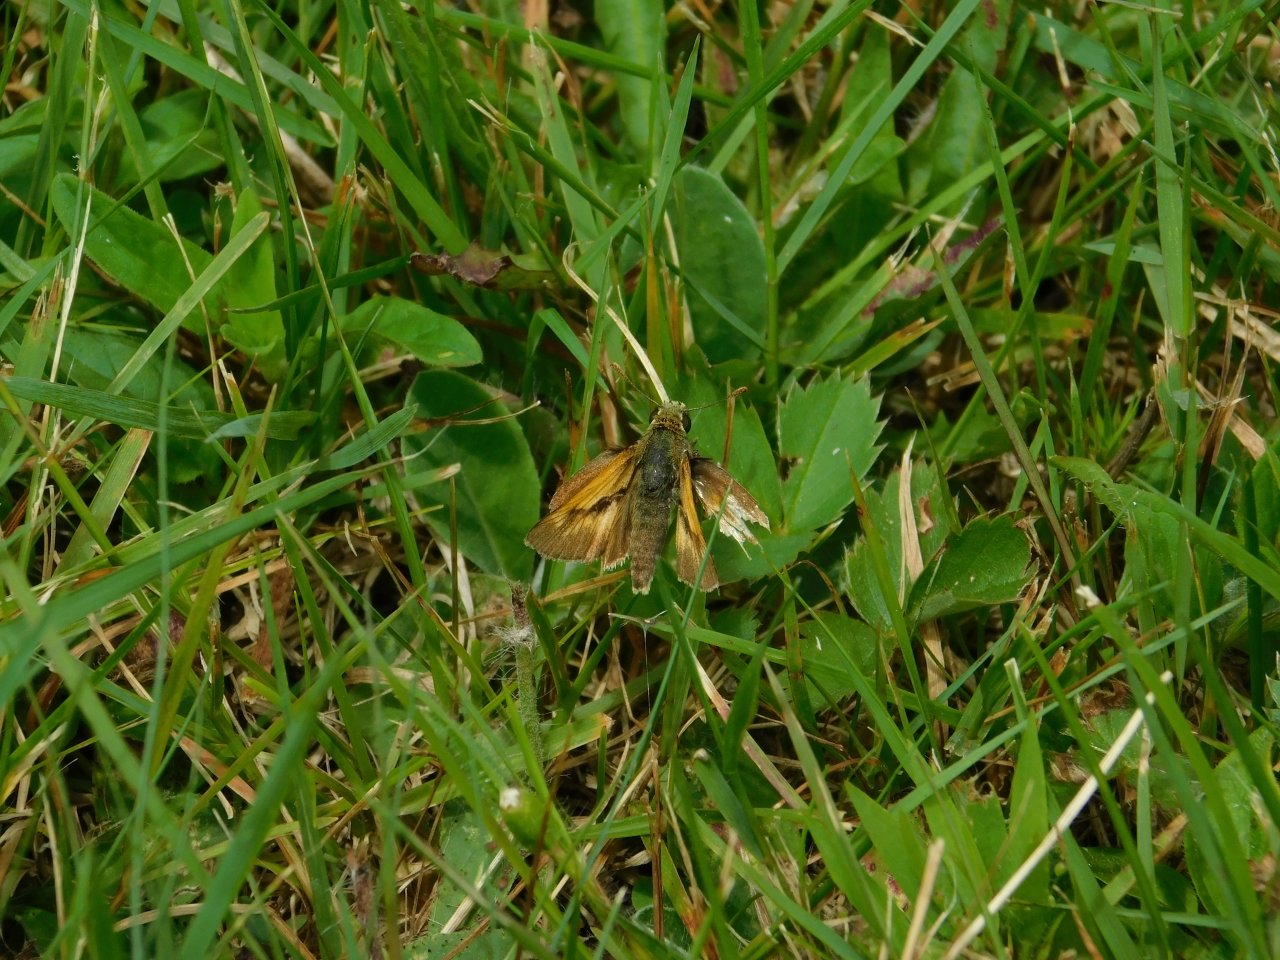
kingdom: Animalia
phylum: Arthropoda
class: Insecta
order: Lepidoptera
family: Hesperiidae
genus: Polites
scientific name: Polites
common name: Long Dash Skipper
